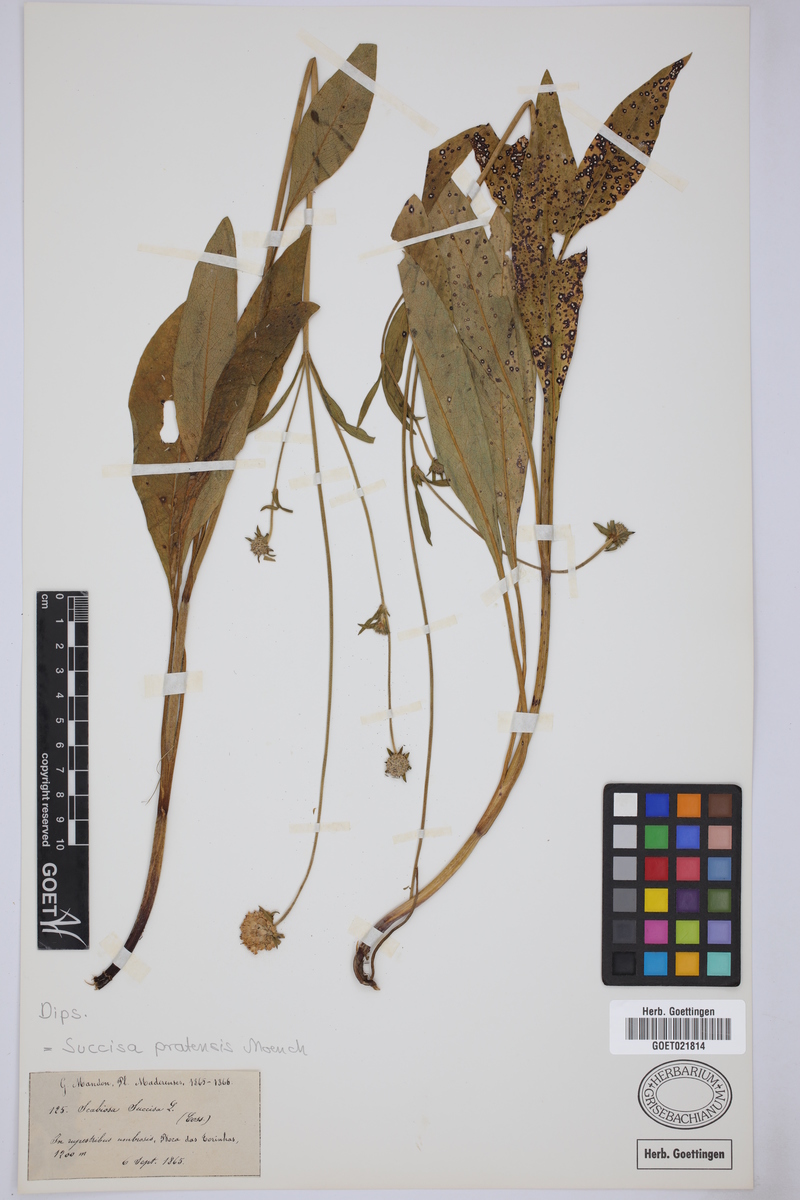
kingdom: Plantae
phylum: Tracheophyta
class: Magnoliopsida
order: Dipsacales
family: Caprifoliaceae
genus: Succisa
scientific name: Succisa pratensis
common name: Devil's-bit
